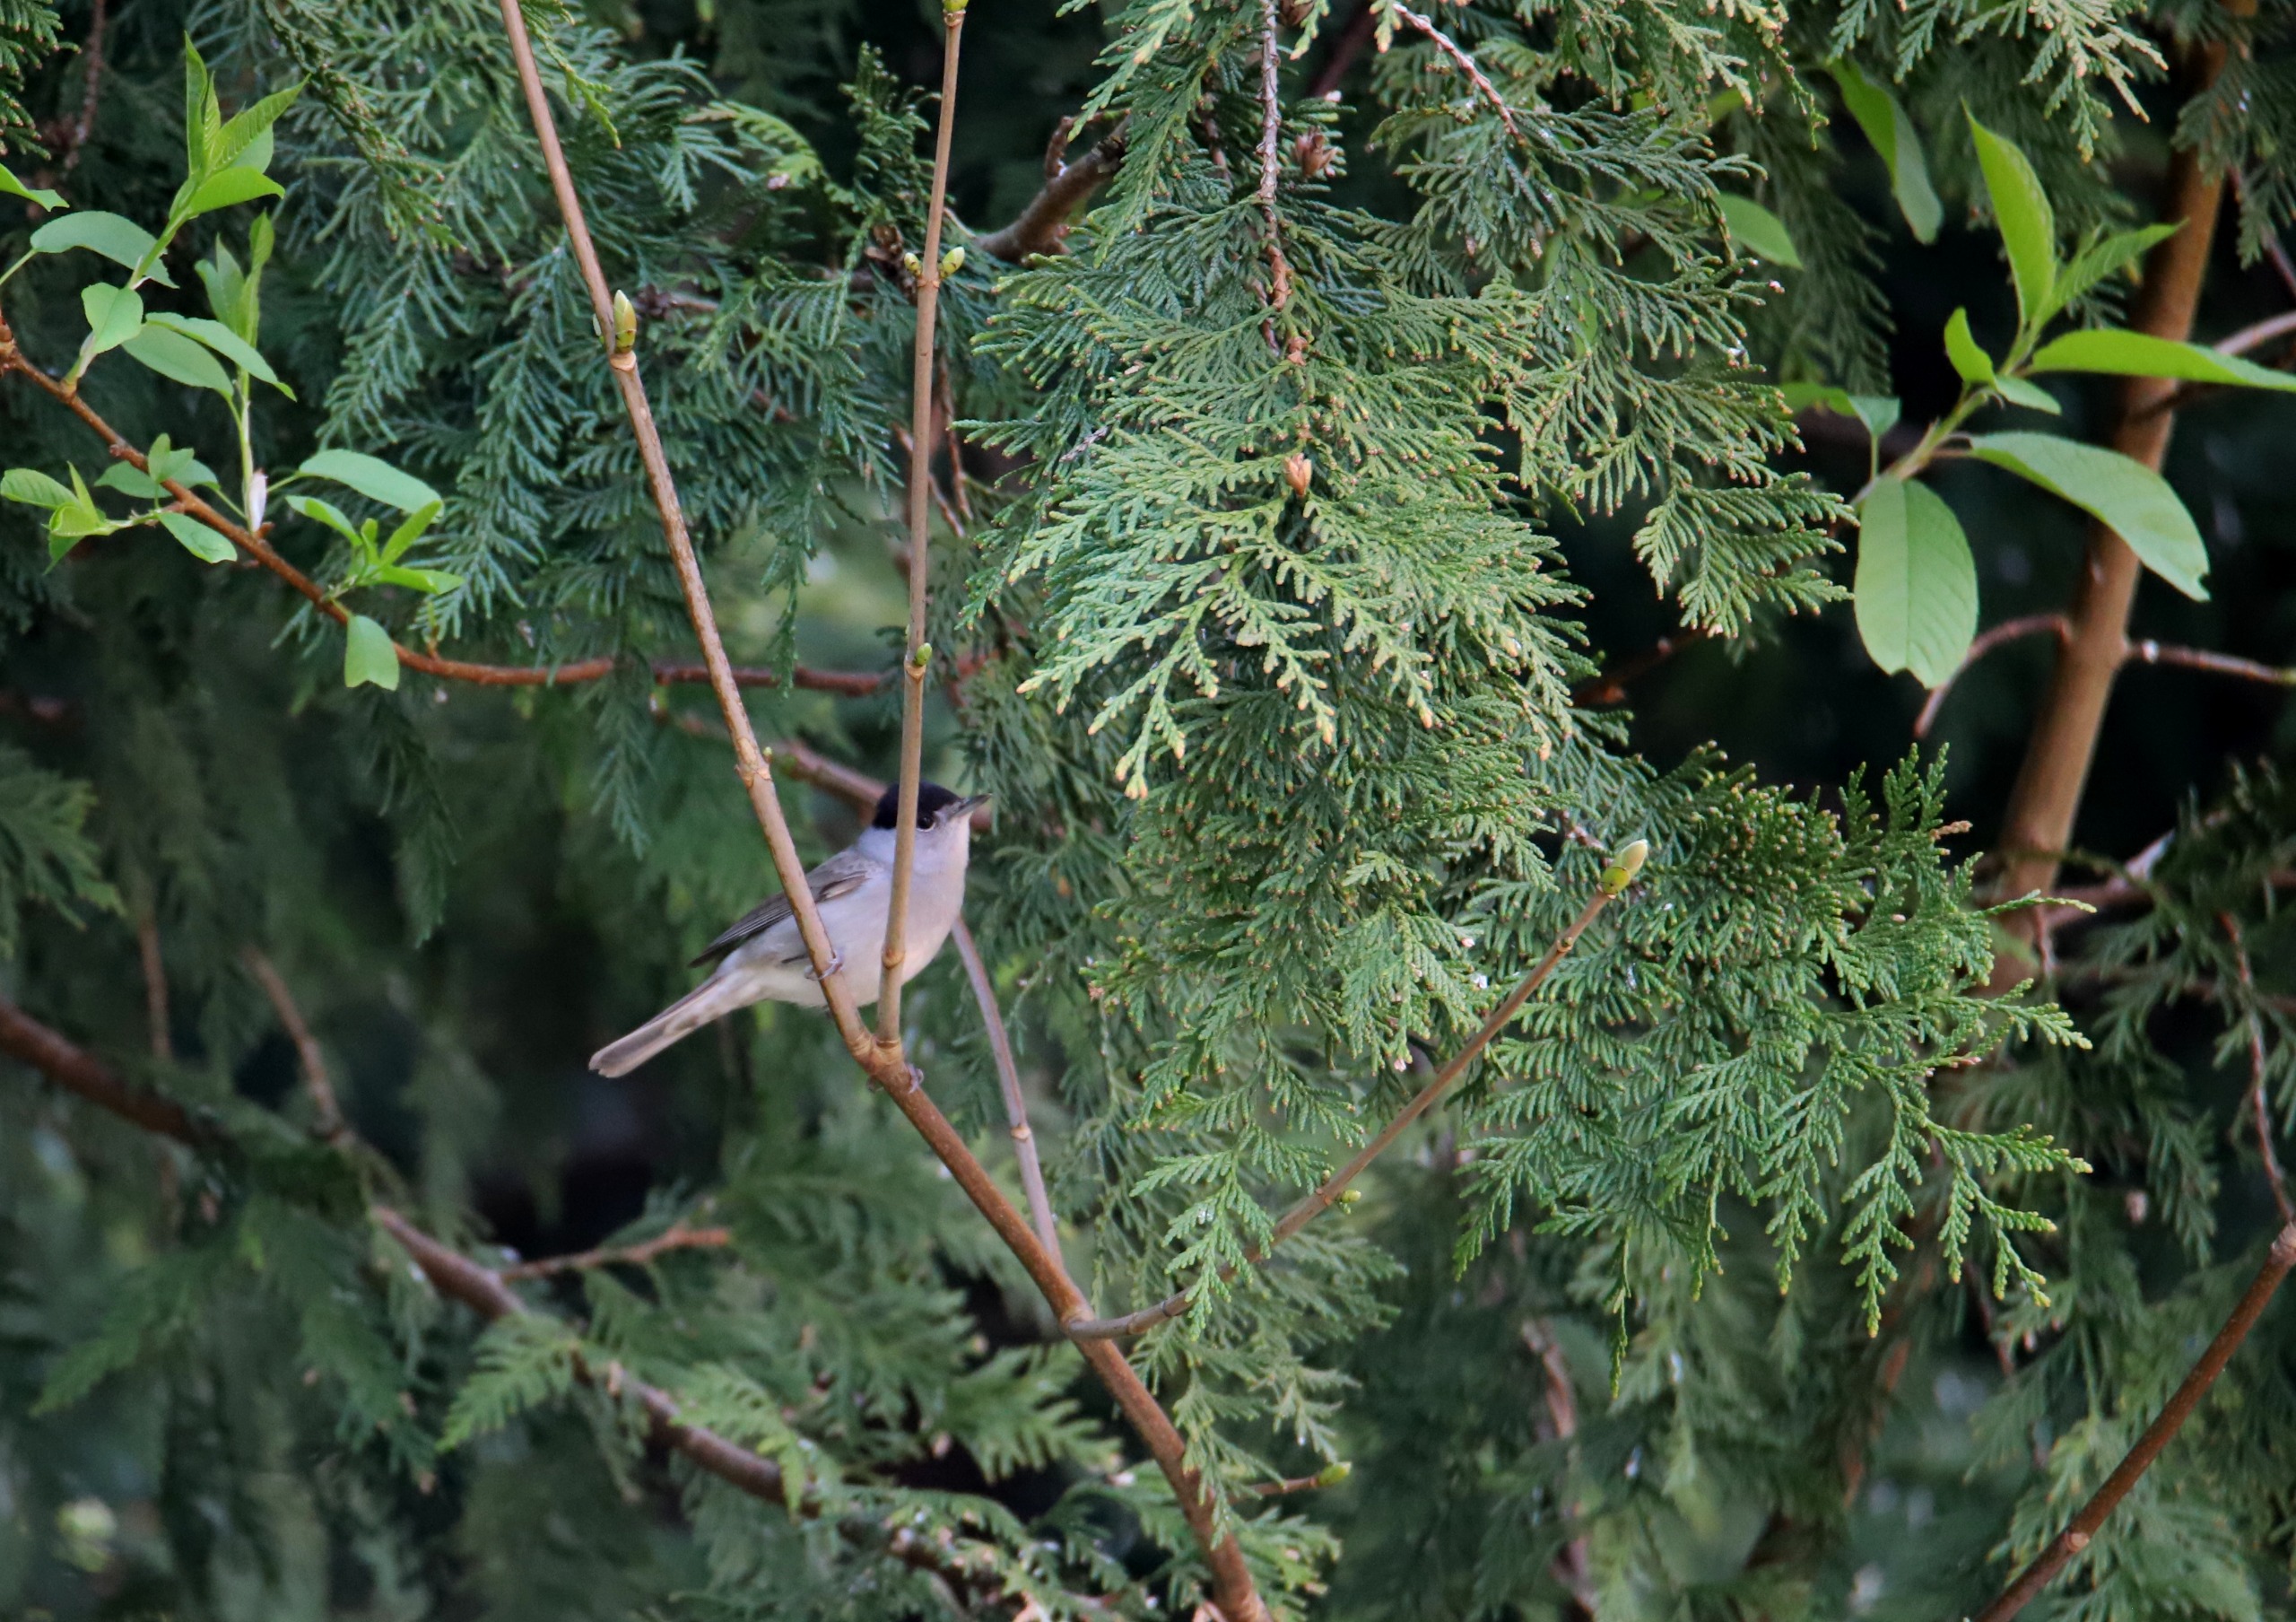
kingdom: Animalia
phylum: Chordata
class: Aves
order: Passeriformes
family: Sylviidae
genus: Sylvia
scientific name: Sylvia atricapilla
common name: Munk
